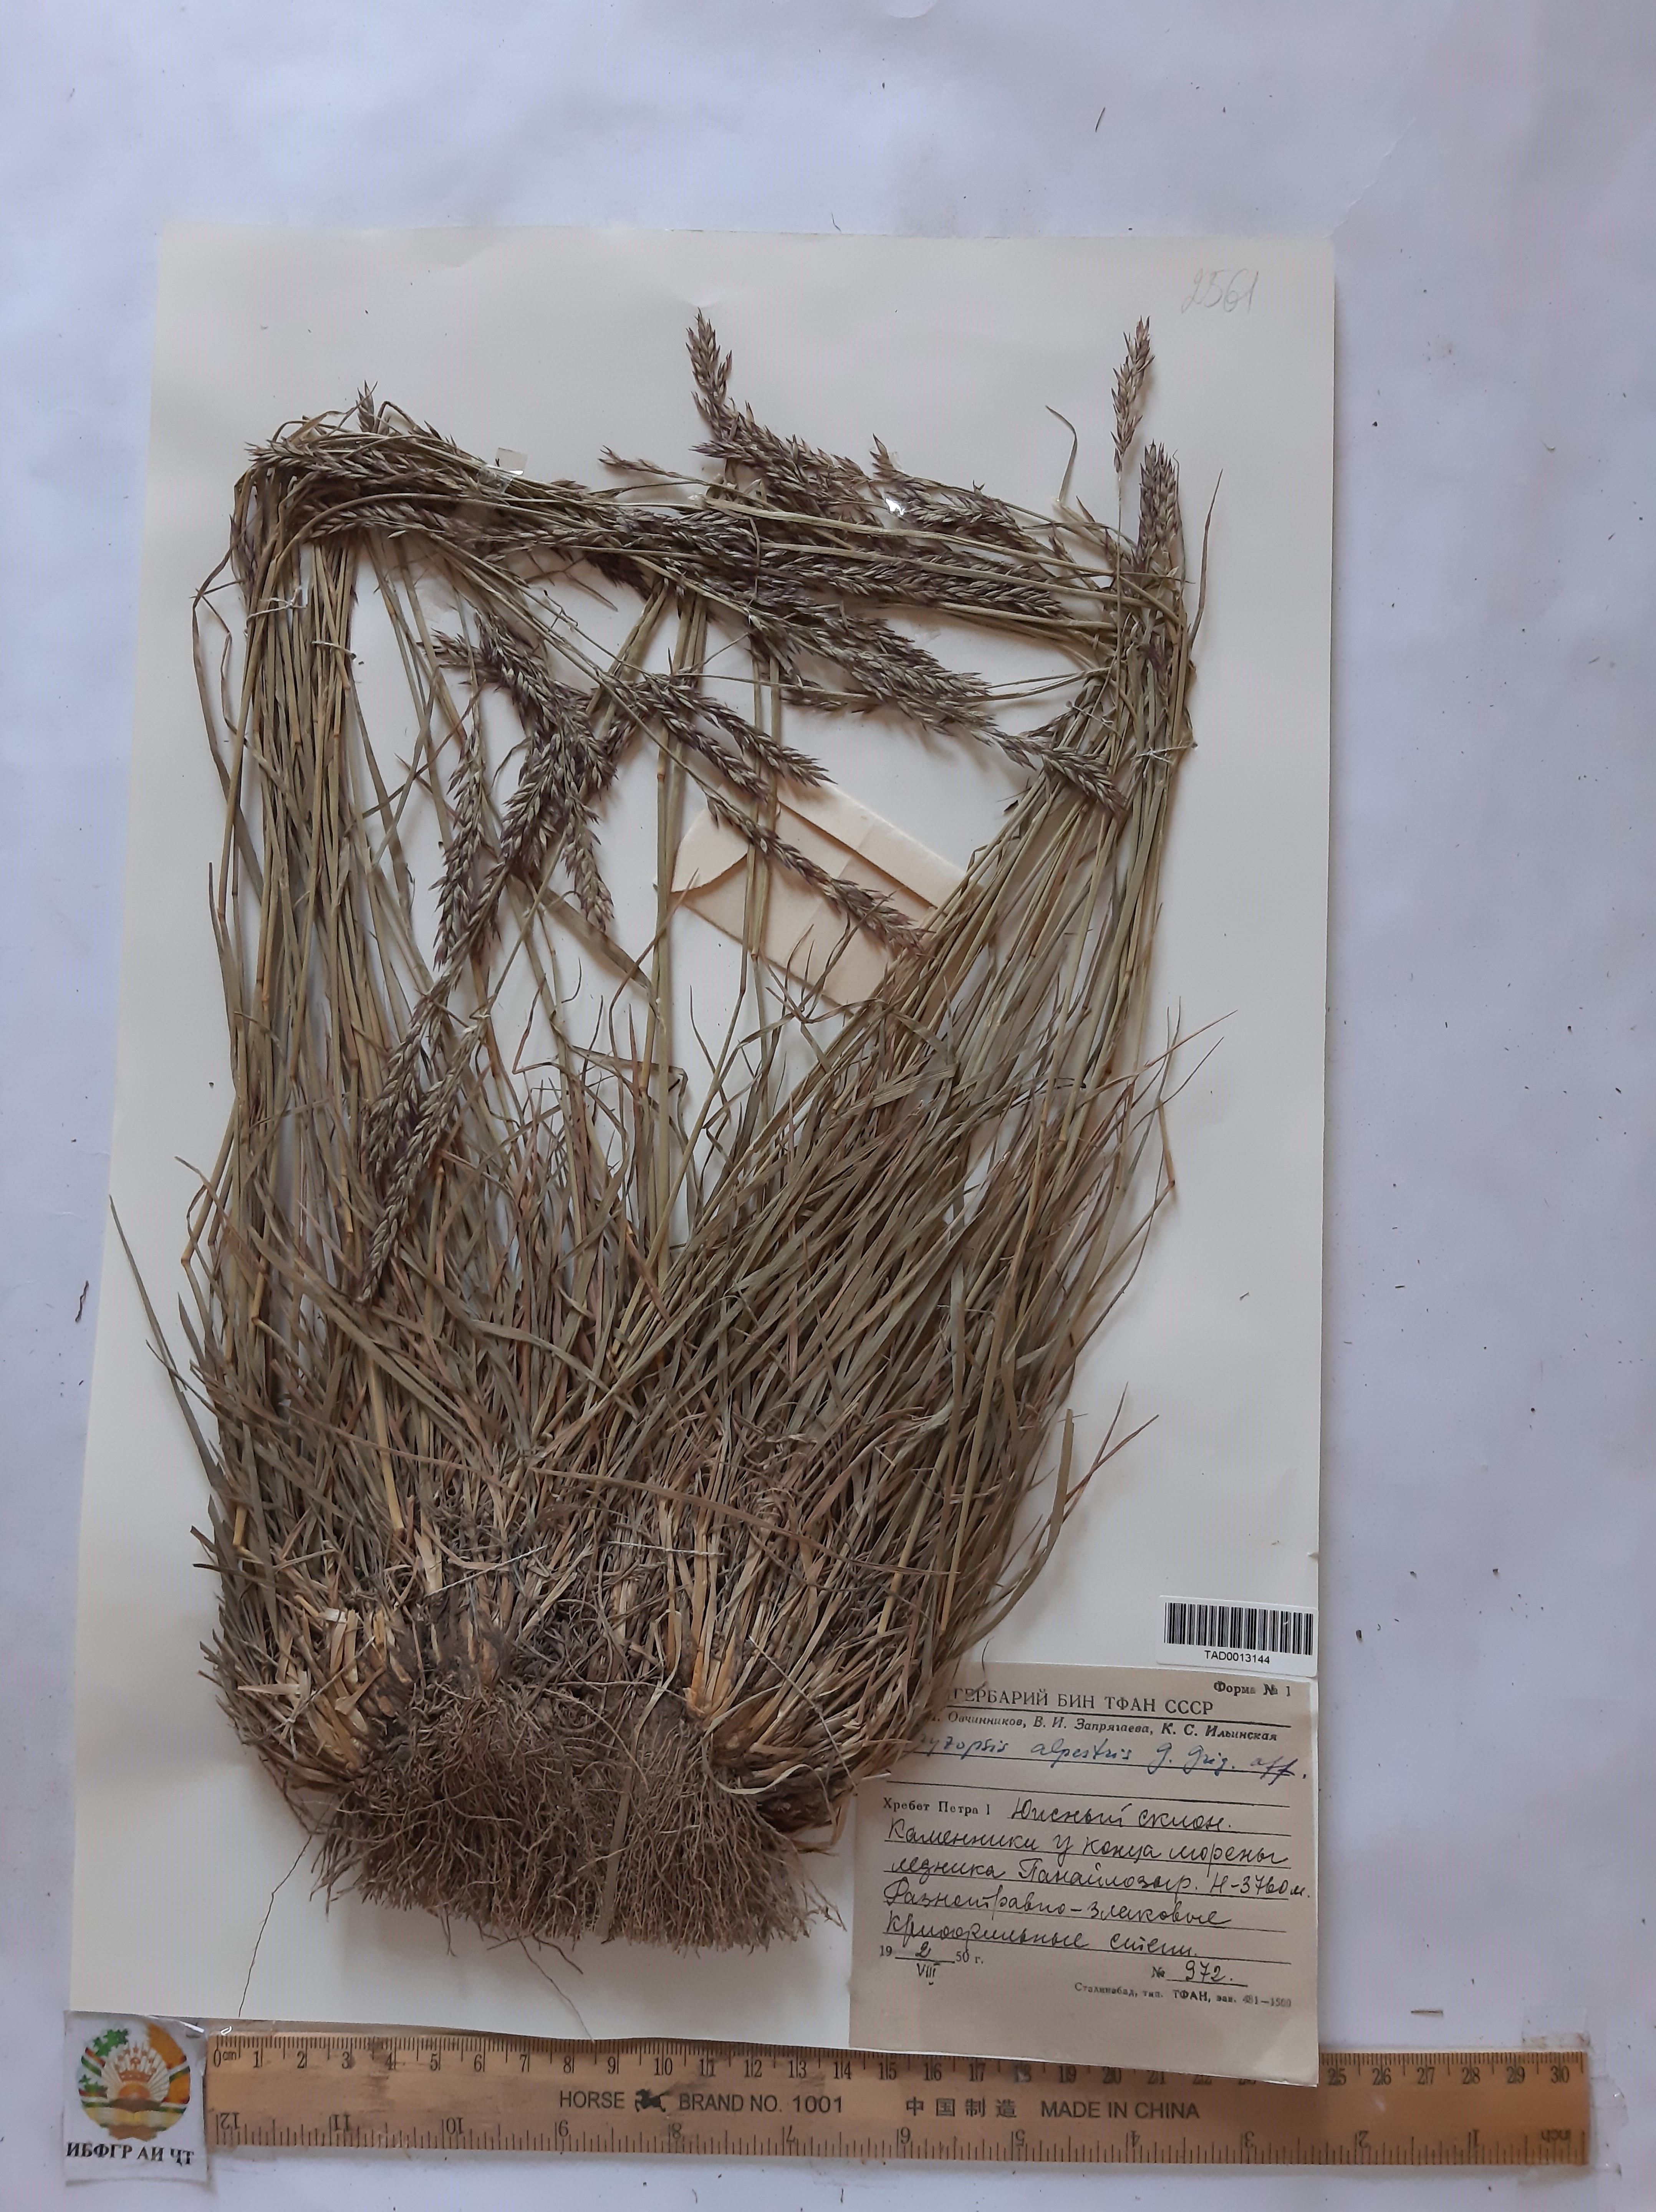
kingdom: Plantae
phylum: Tracheophyta
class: Liliopsida
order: Poales
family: Poaceae
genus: Piptatherum
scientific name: Piptatherum alpestre
